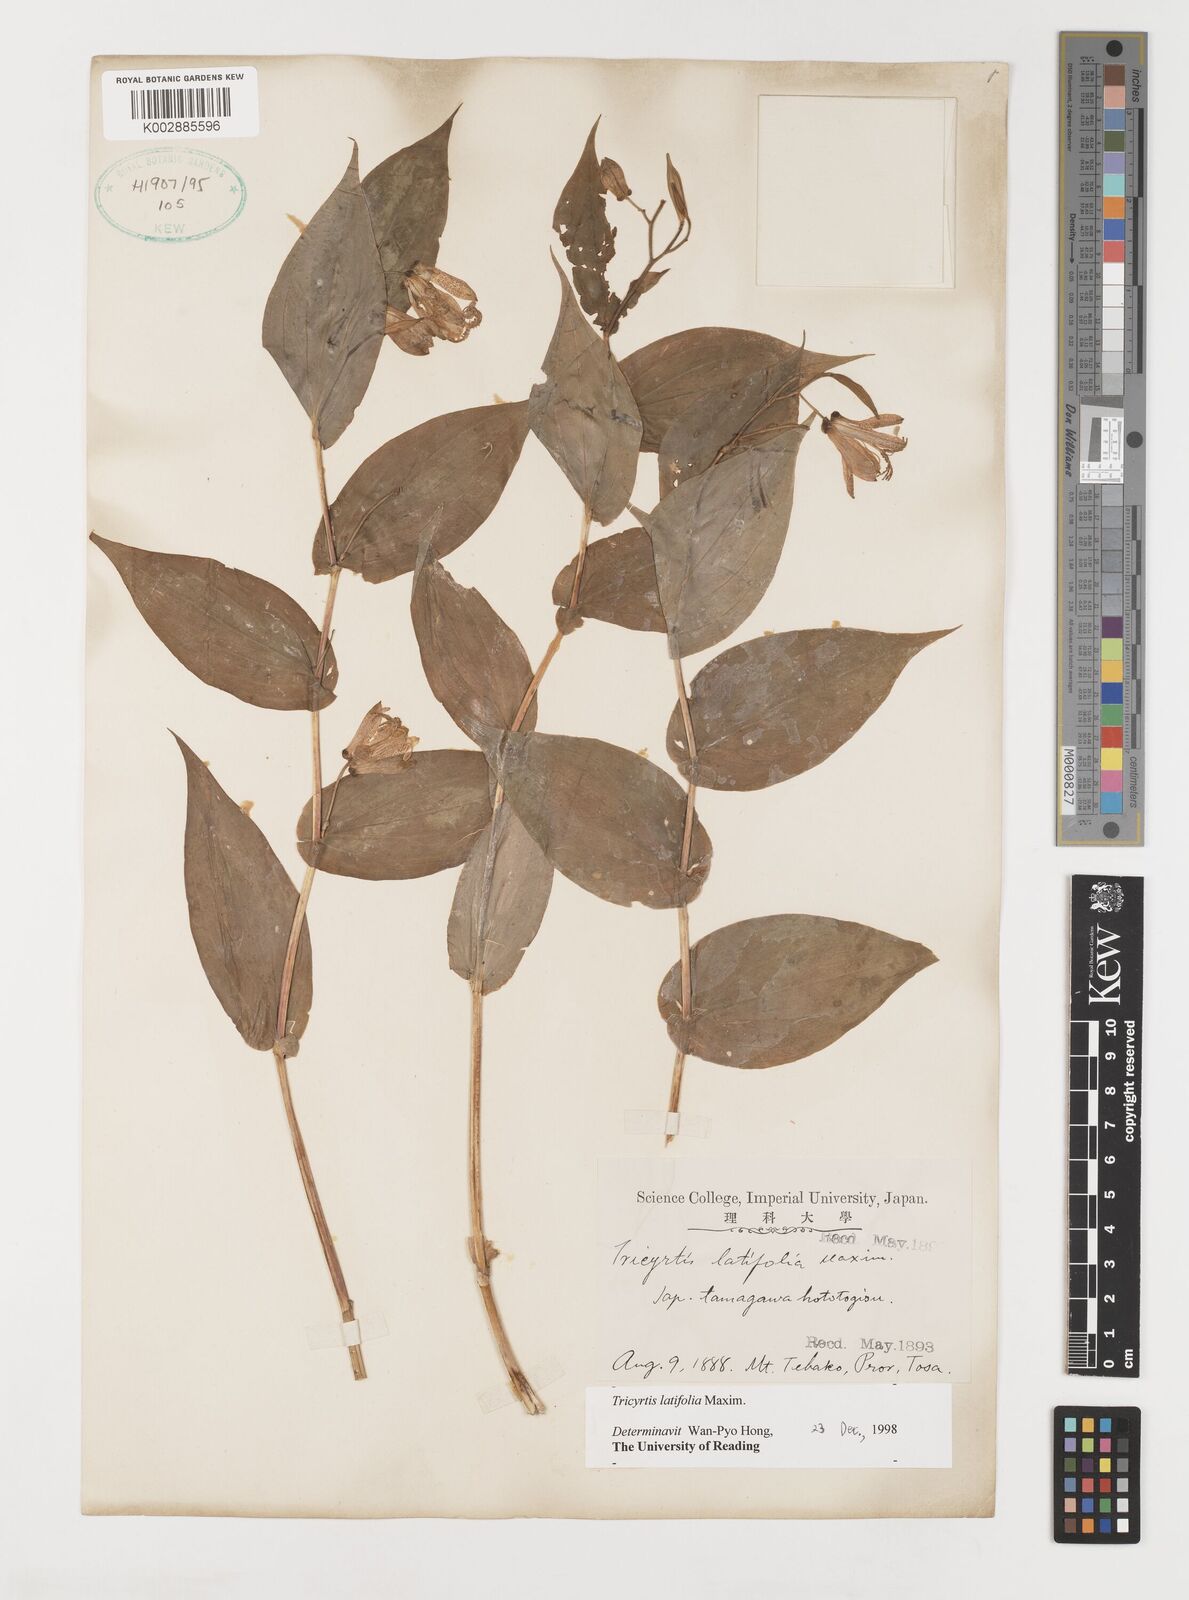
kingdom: Plantae
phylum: Tracheophyta
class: Liliopsida
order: Liliales
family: Liliaceae
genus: Tricyrtis
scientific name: Tricyrtis latifolia
